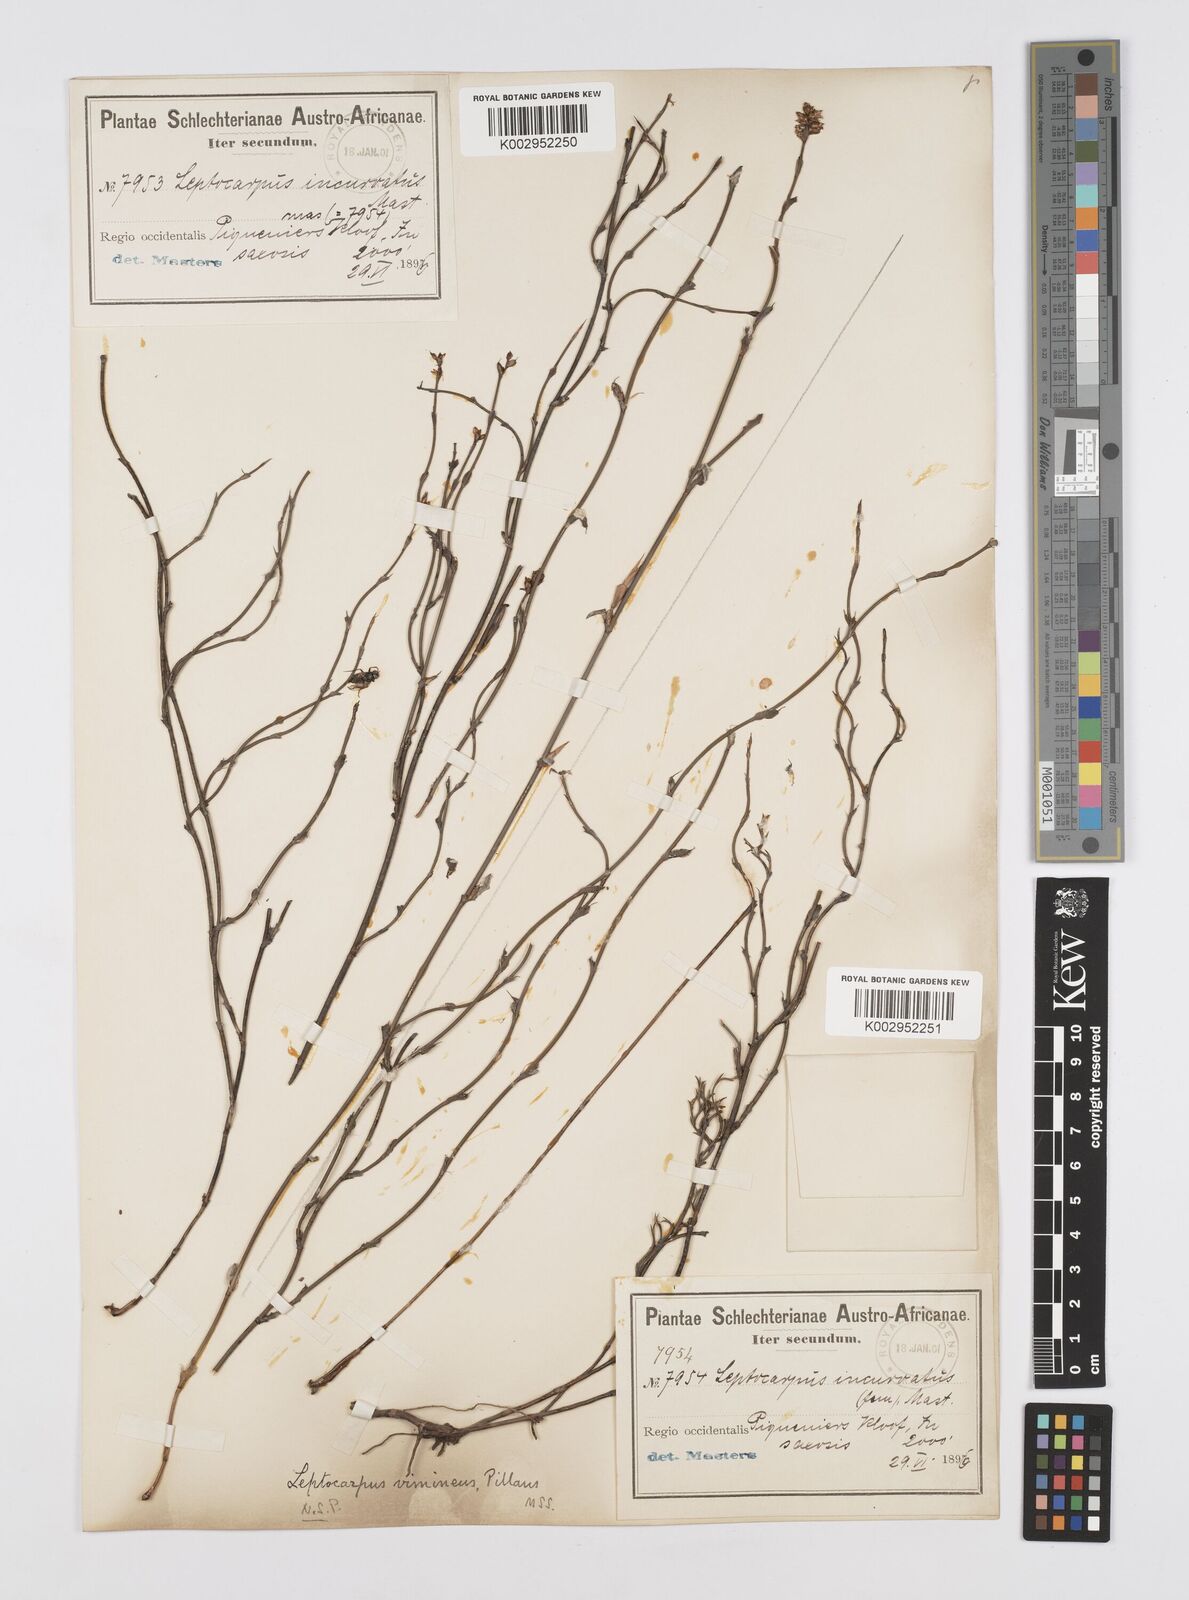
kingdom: Plantae
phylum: Tracheophyta
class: Liliopsida
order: Poales
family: Restionaceae
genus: Restio
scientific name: Restio vimineus
